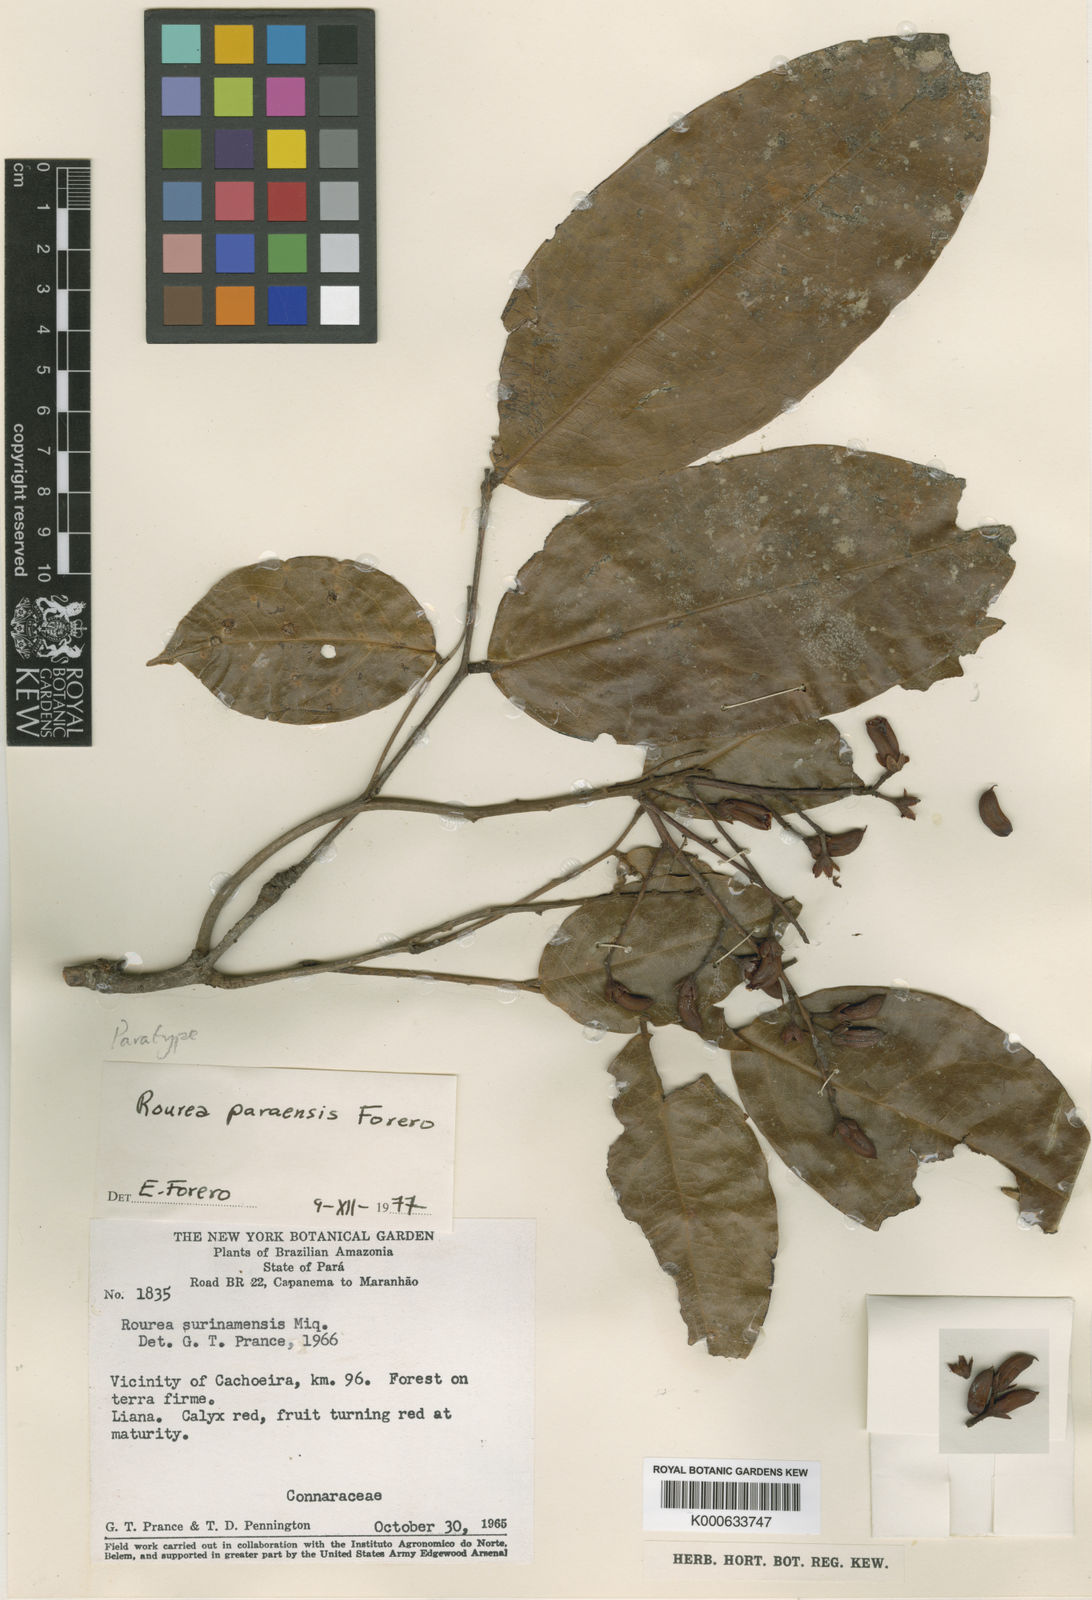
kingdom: Plantae
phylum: Tracheophyta
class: Magnoliopsida
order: Oxalidales
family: Connaraceae
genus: Rourea
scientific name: Rourea paraensis
